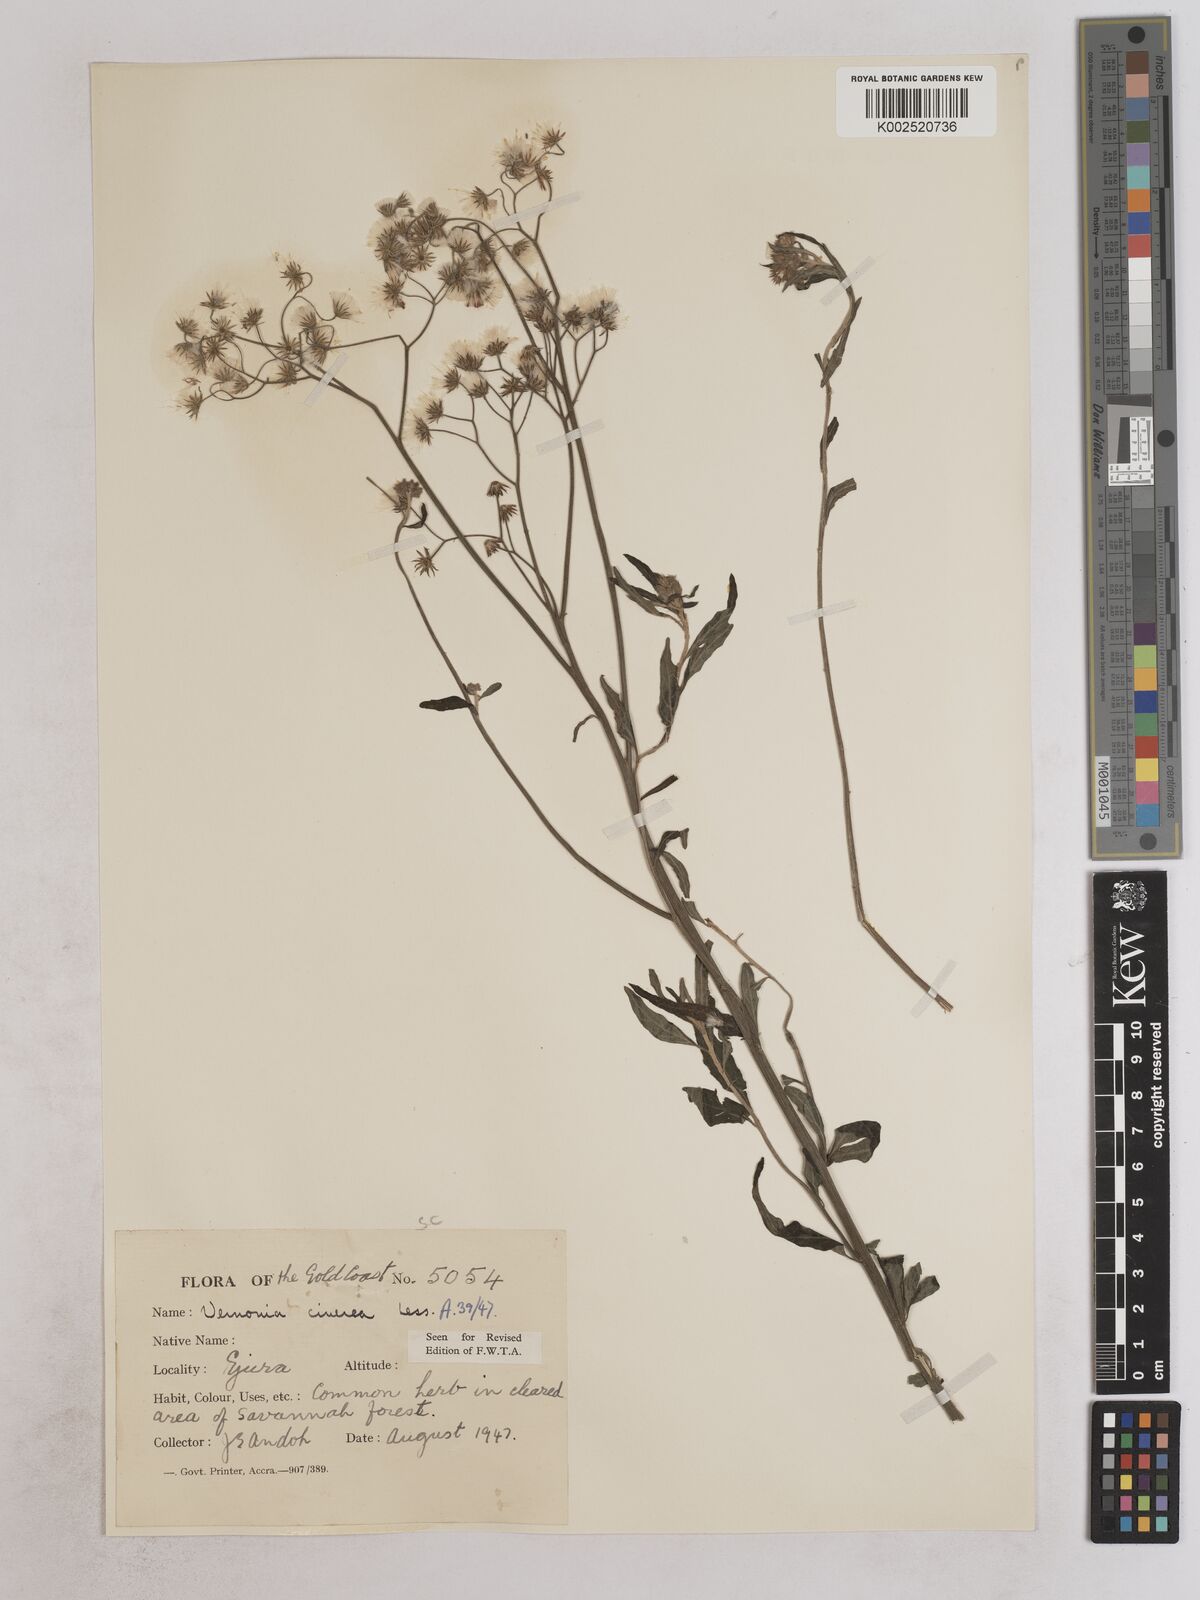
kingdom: Plantae
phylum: Tracheophyta
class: Magnoliopsida
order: Asterales
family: Asteraceae
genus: Cyanthillium
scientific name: Cyanthillium cinereum
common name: Little ironweed
